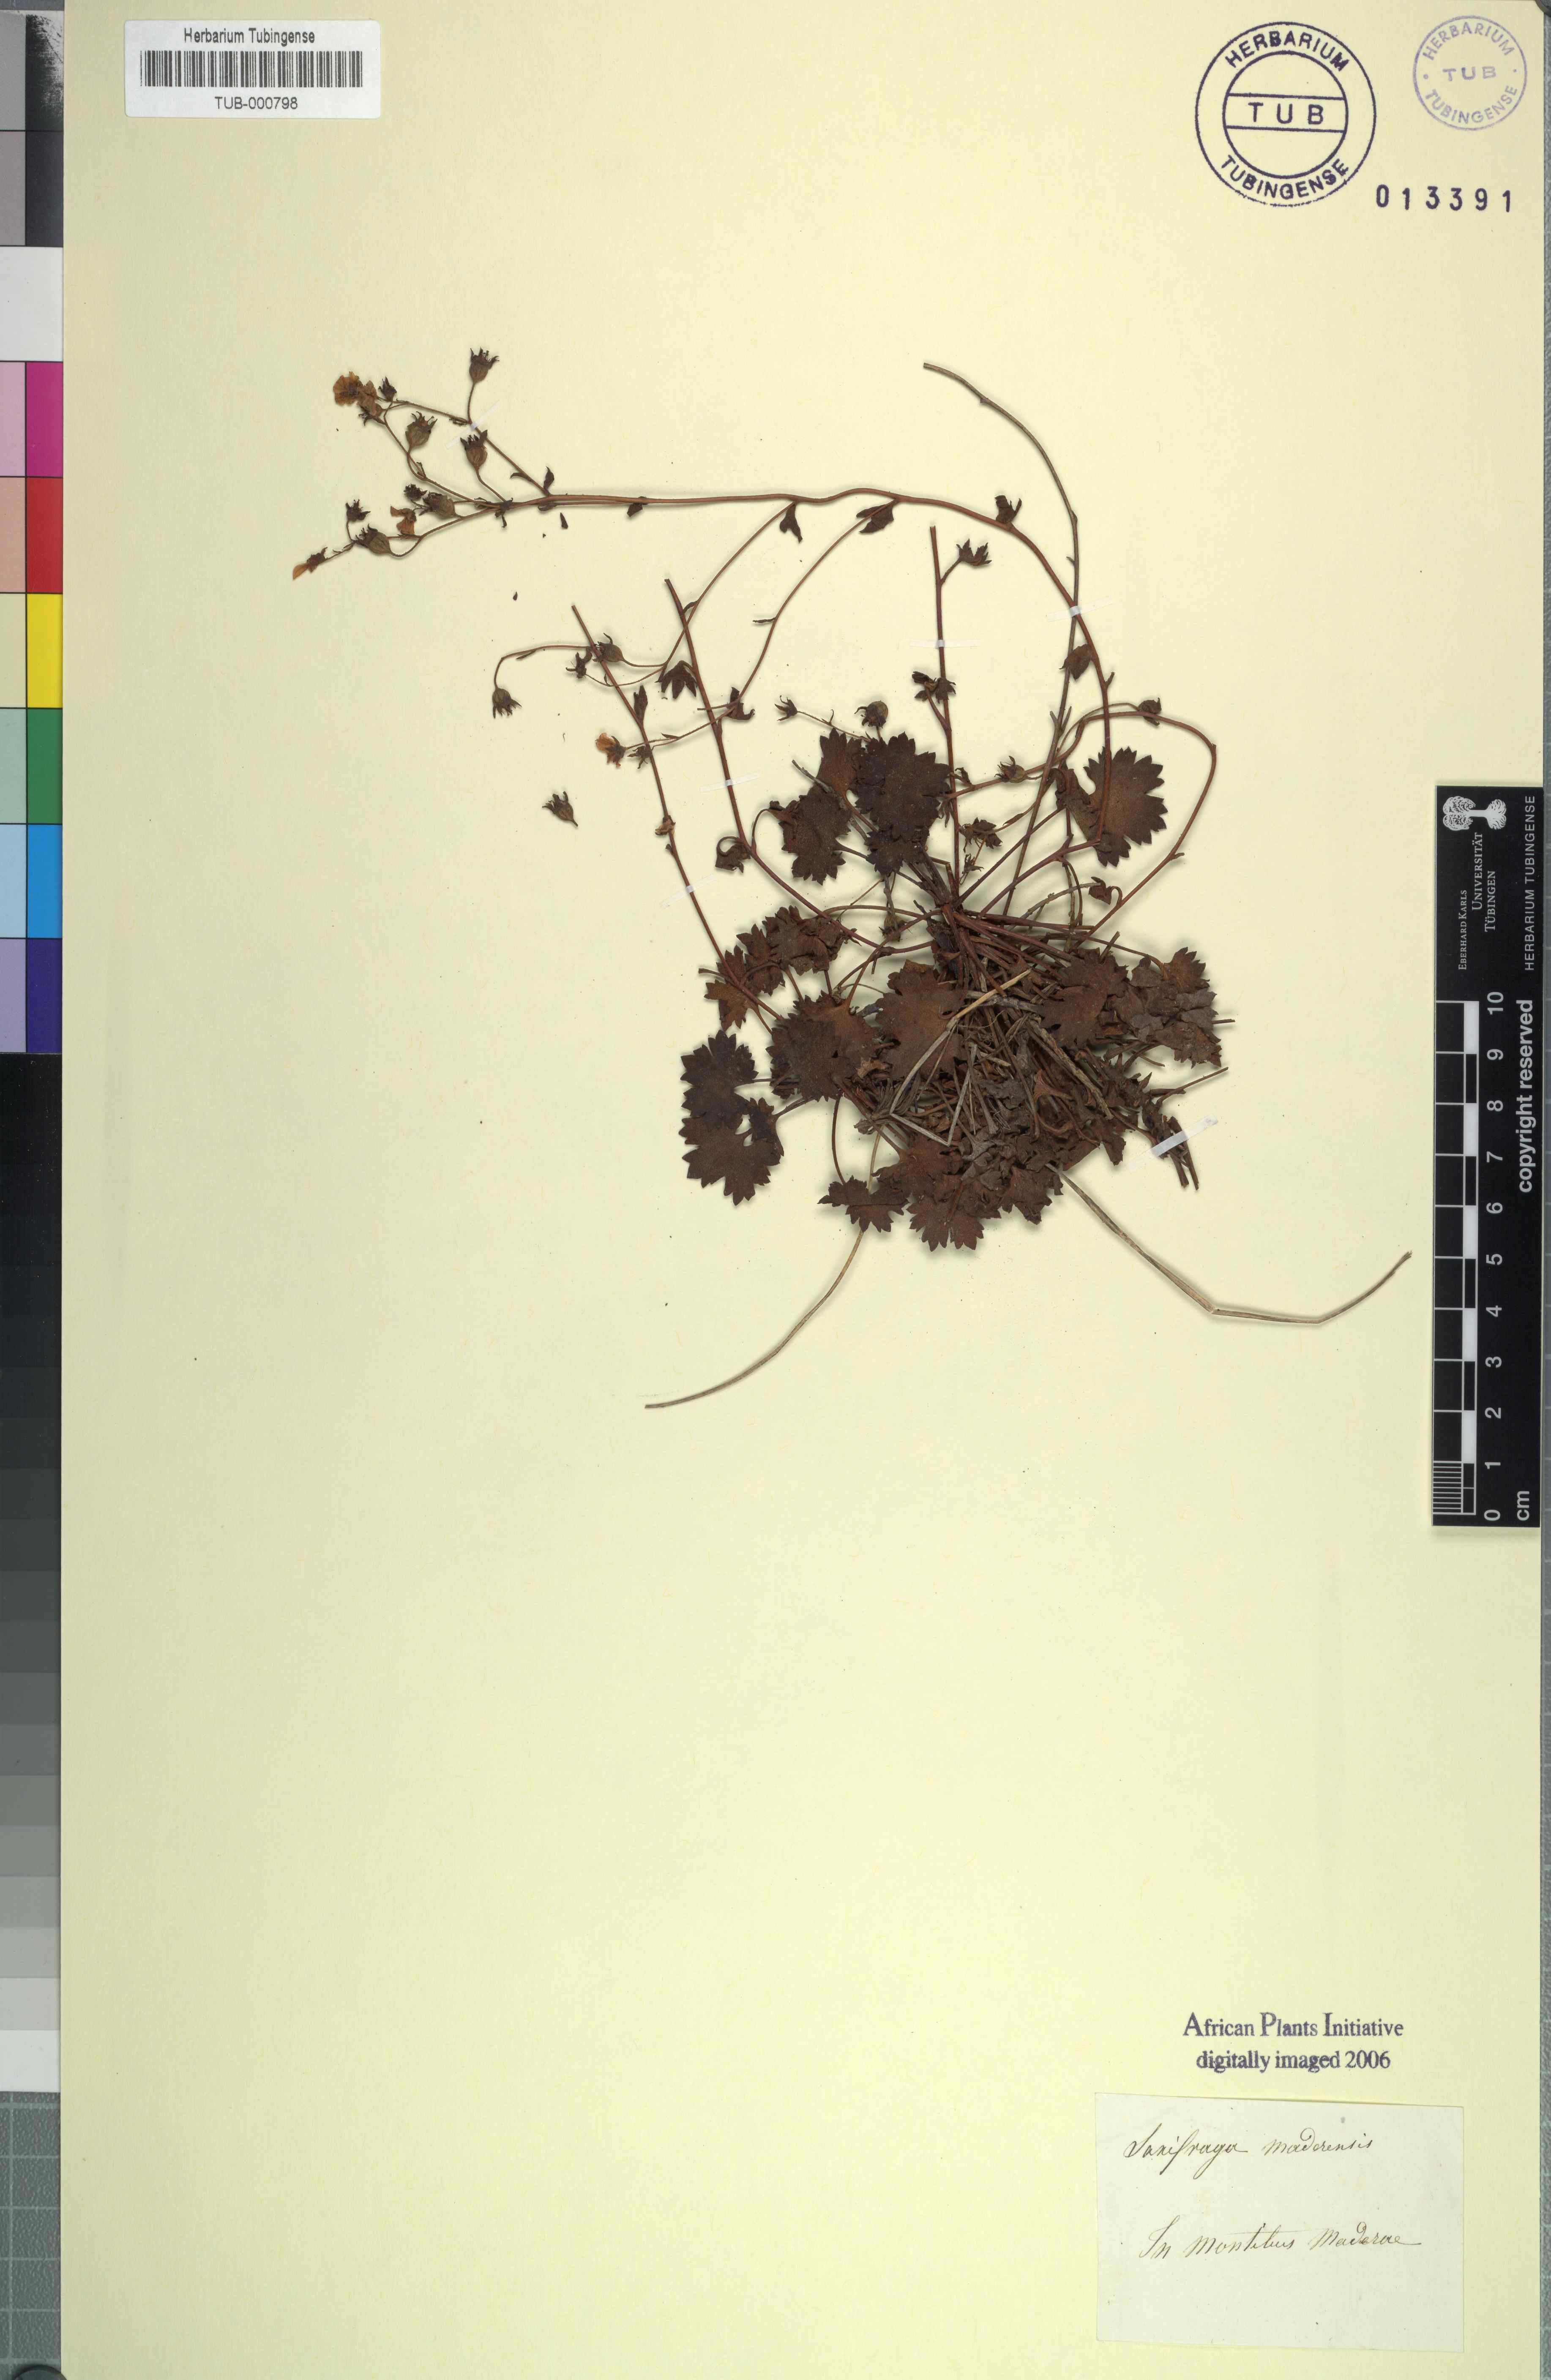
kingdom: Plantae
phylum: Tracheophyta
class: Magnoliopsida
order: Saxifragales
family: Saxifragaceae
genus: Saxifraga
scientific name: Saxifraga maderensis
